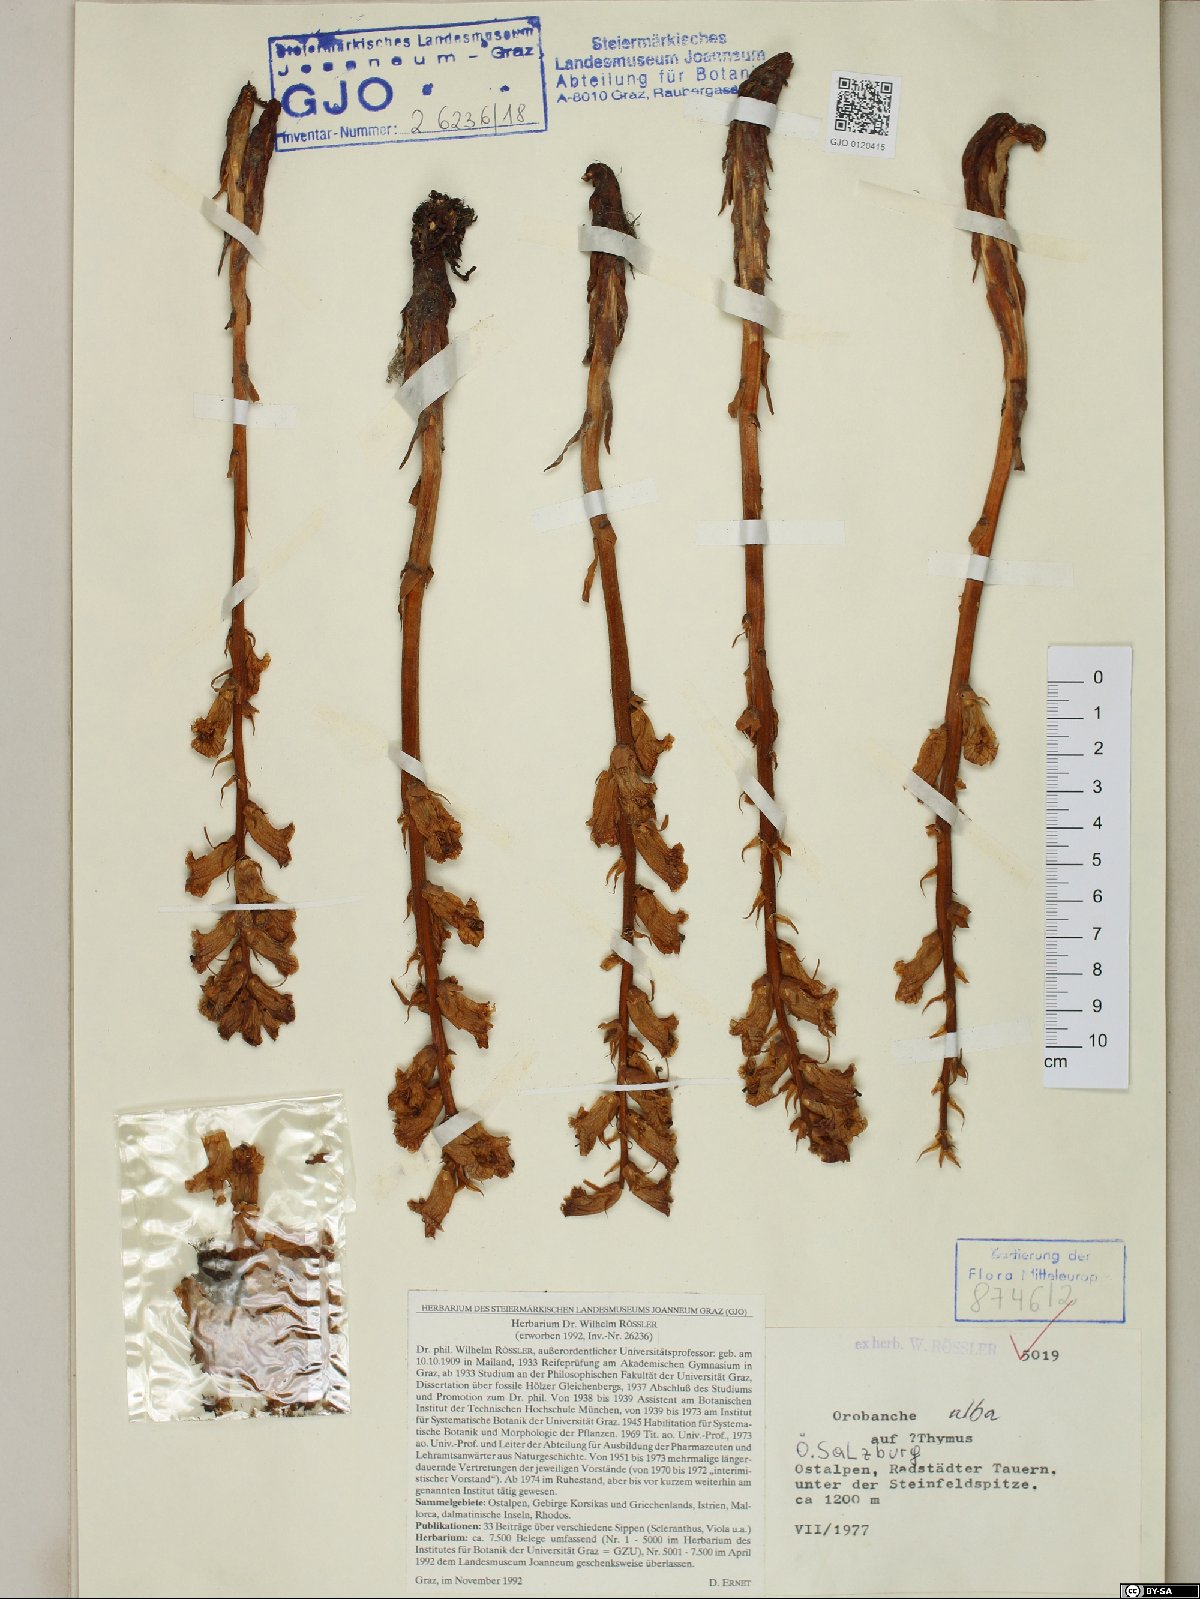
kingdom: Plantae
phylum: Tracheophyta
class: Magnoliopsida
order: Lamiales
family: Orobanchaceae
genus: Orobanche
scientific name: Orobanche alba
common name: Thyme broomrape
